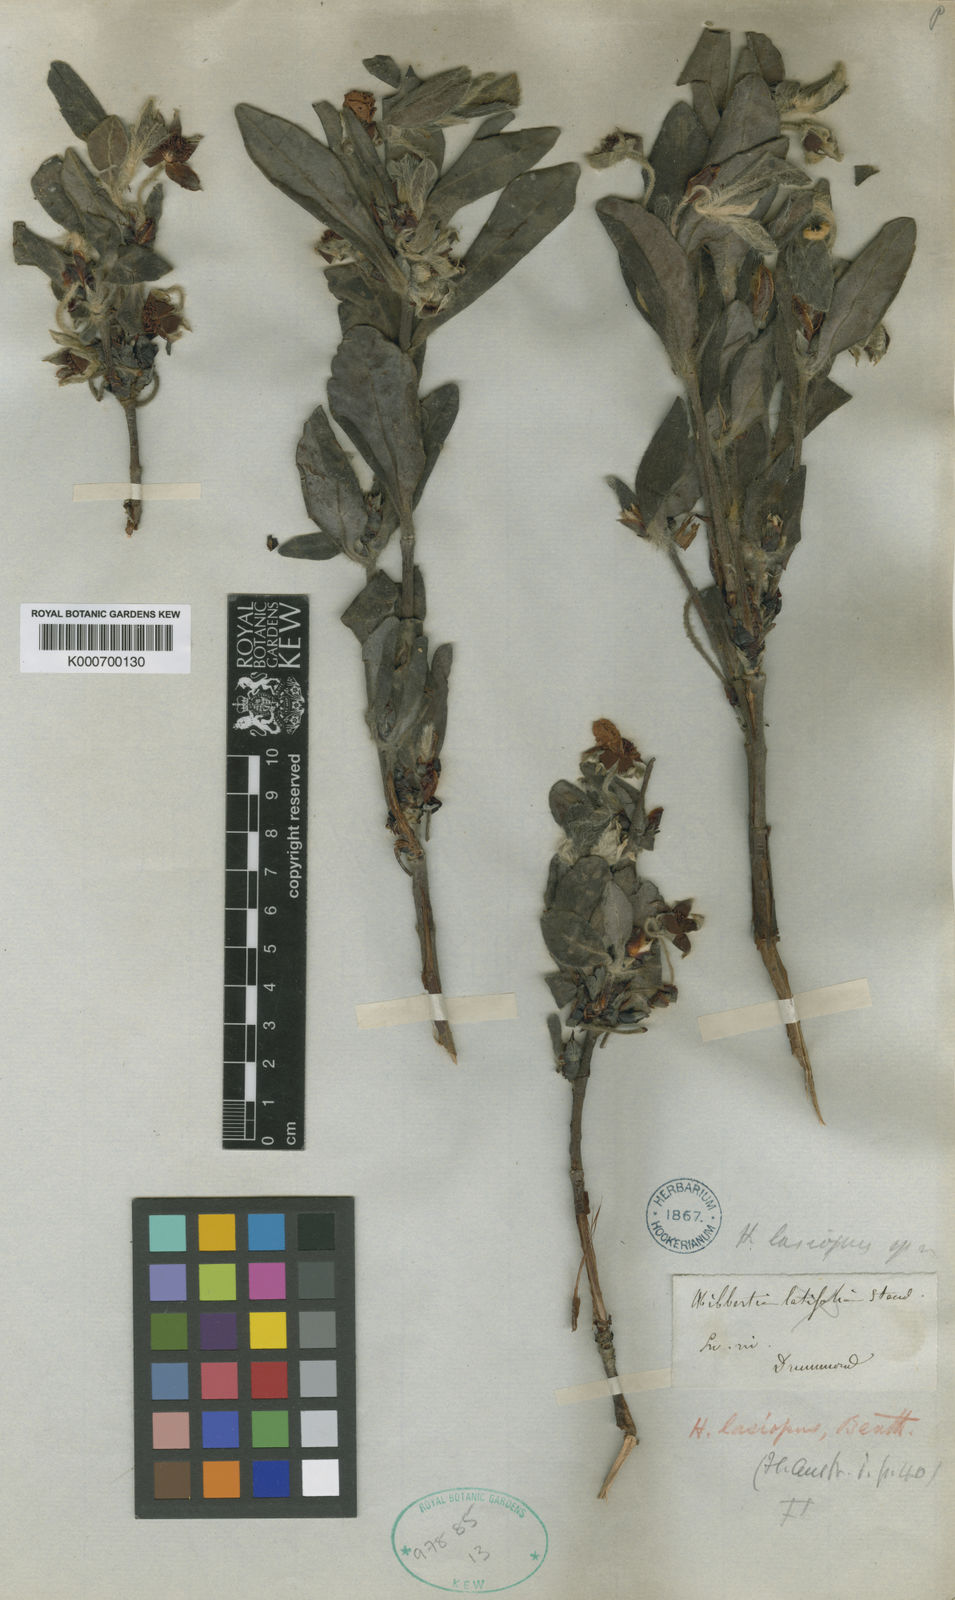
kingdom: Plantae
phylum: Tracheophyta
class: Magnoliopsida
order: Dilleniales
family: Dilleniaceae
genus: Hibbertia
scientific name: Hibbertia lasiopus
